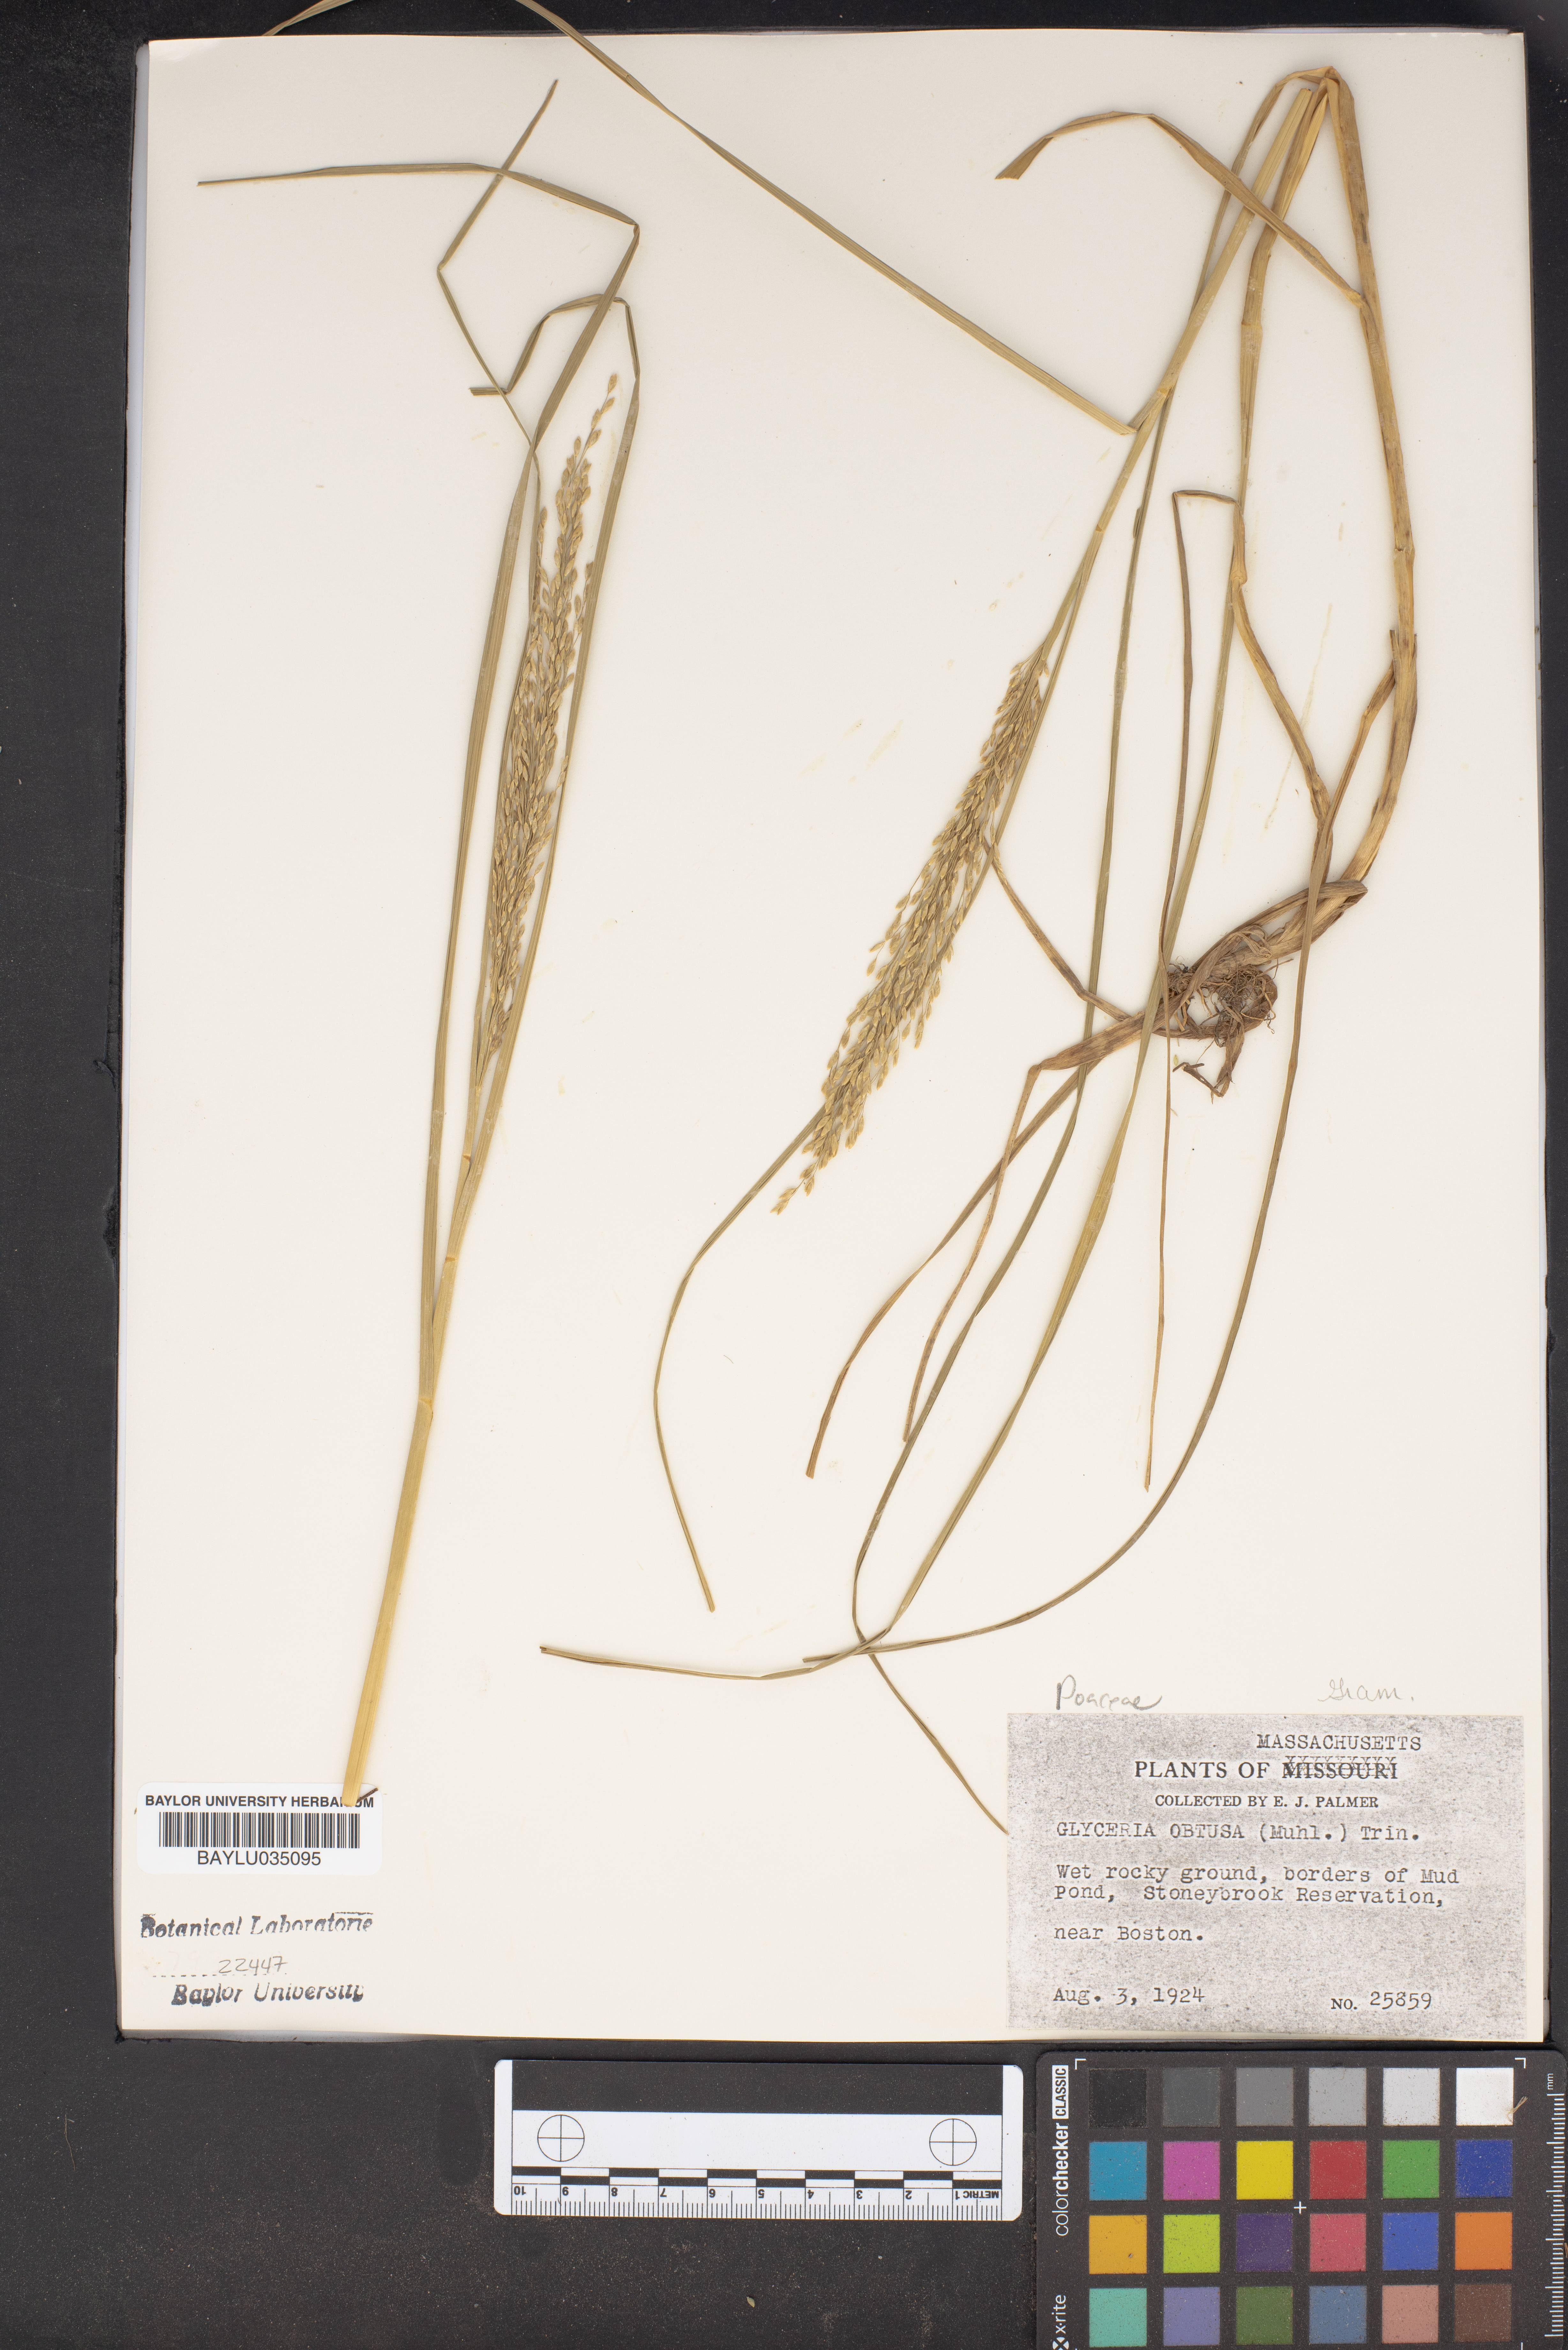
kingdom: Plantae
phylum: Tracheophyta
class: Liliopsida
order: Poales
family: Poaceae
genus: Glyceria
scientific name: Glyceria obtusa
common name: Atlantic mannagrass
